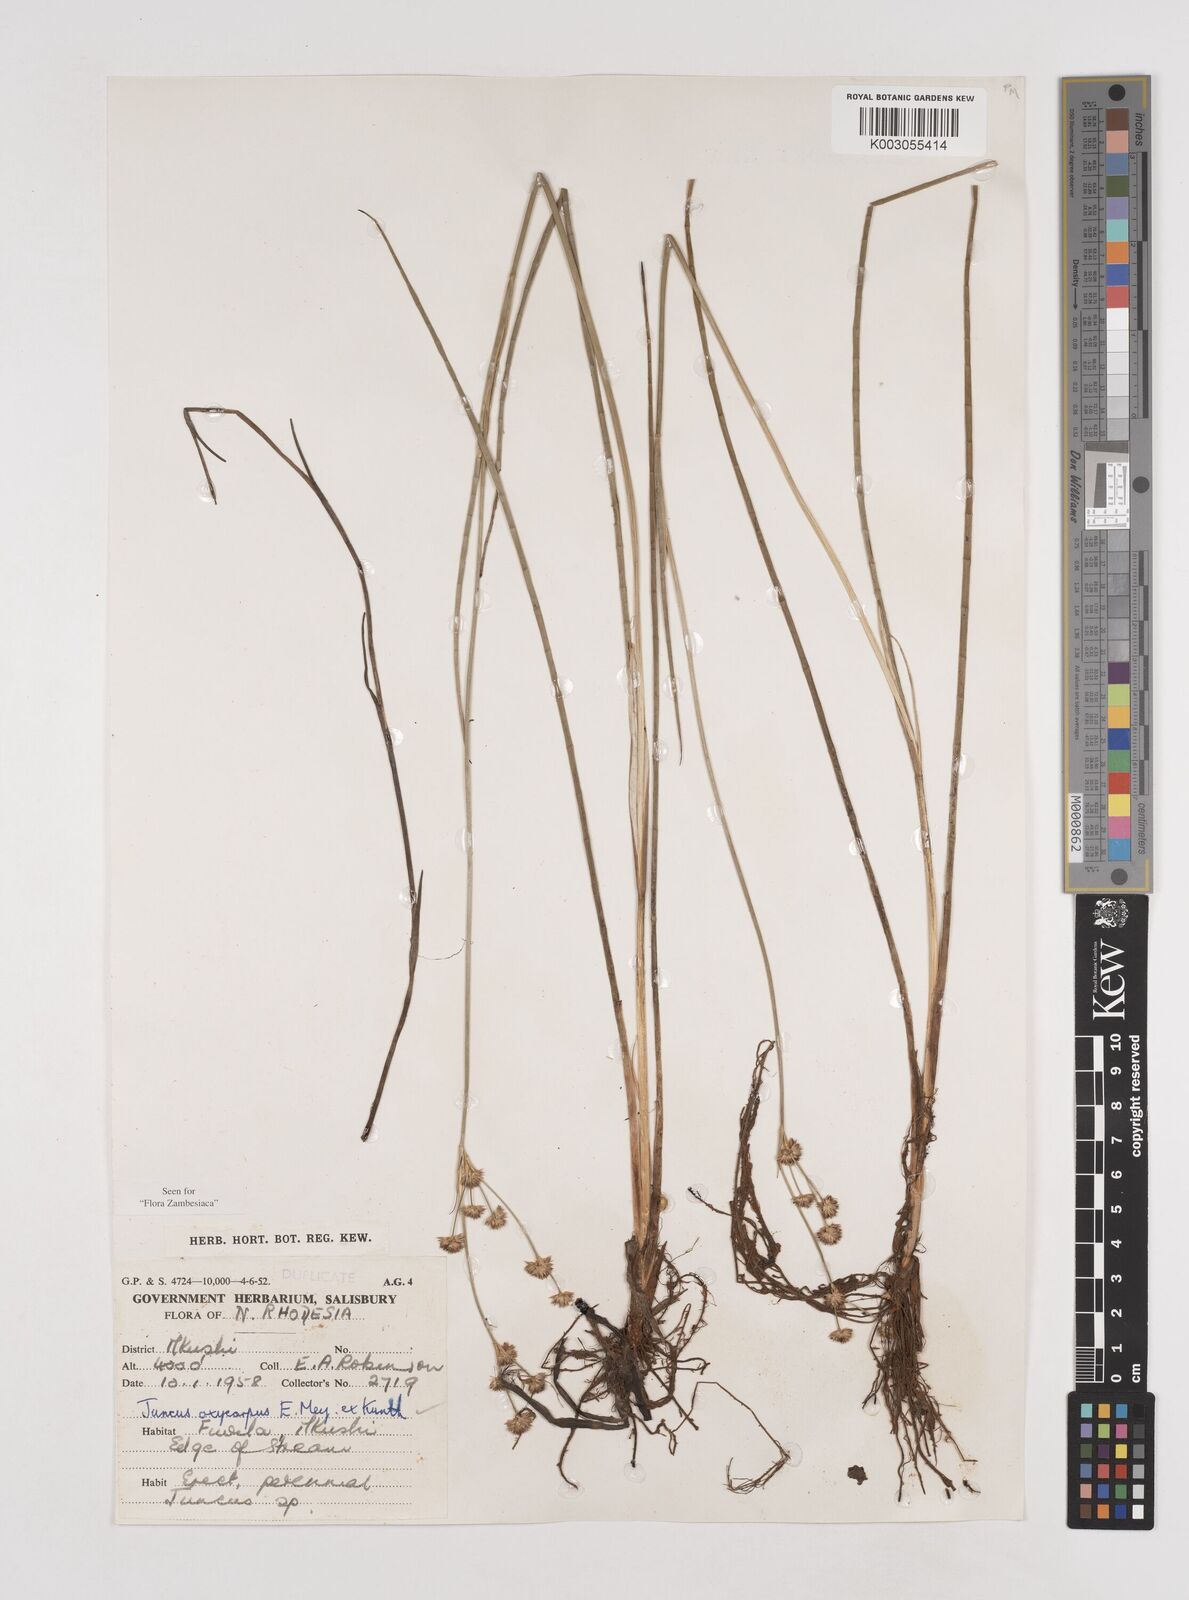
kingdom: Plantae
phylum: Tracheophyta
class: Liliopsida
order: Poales
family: Juncaceae
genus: Juncus
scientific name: Juncus oxycarpus
